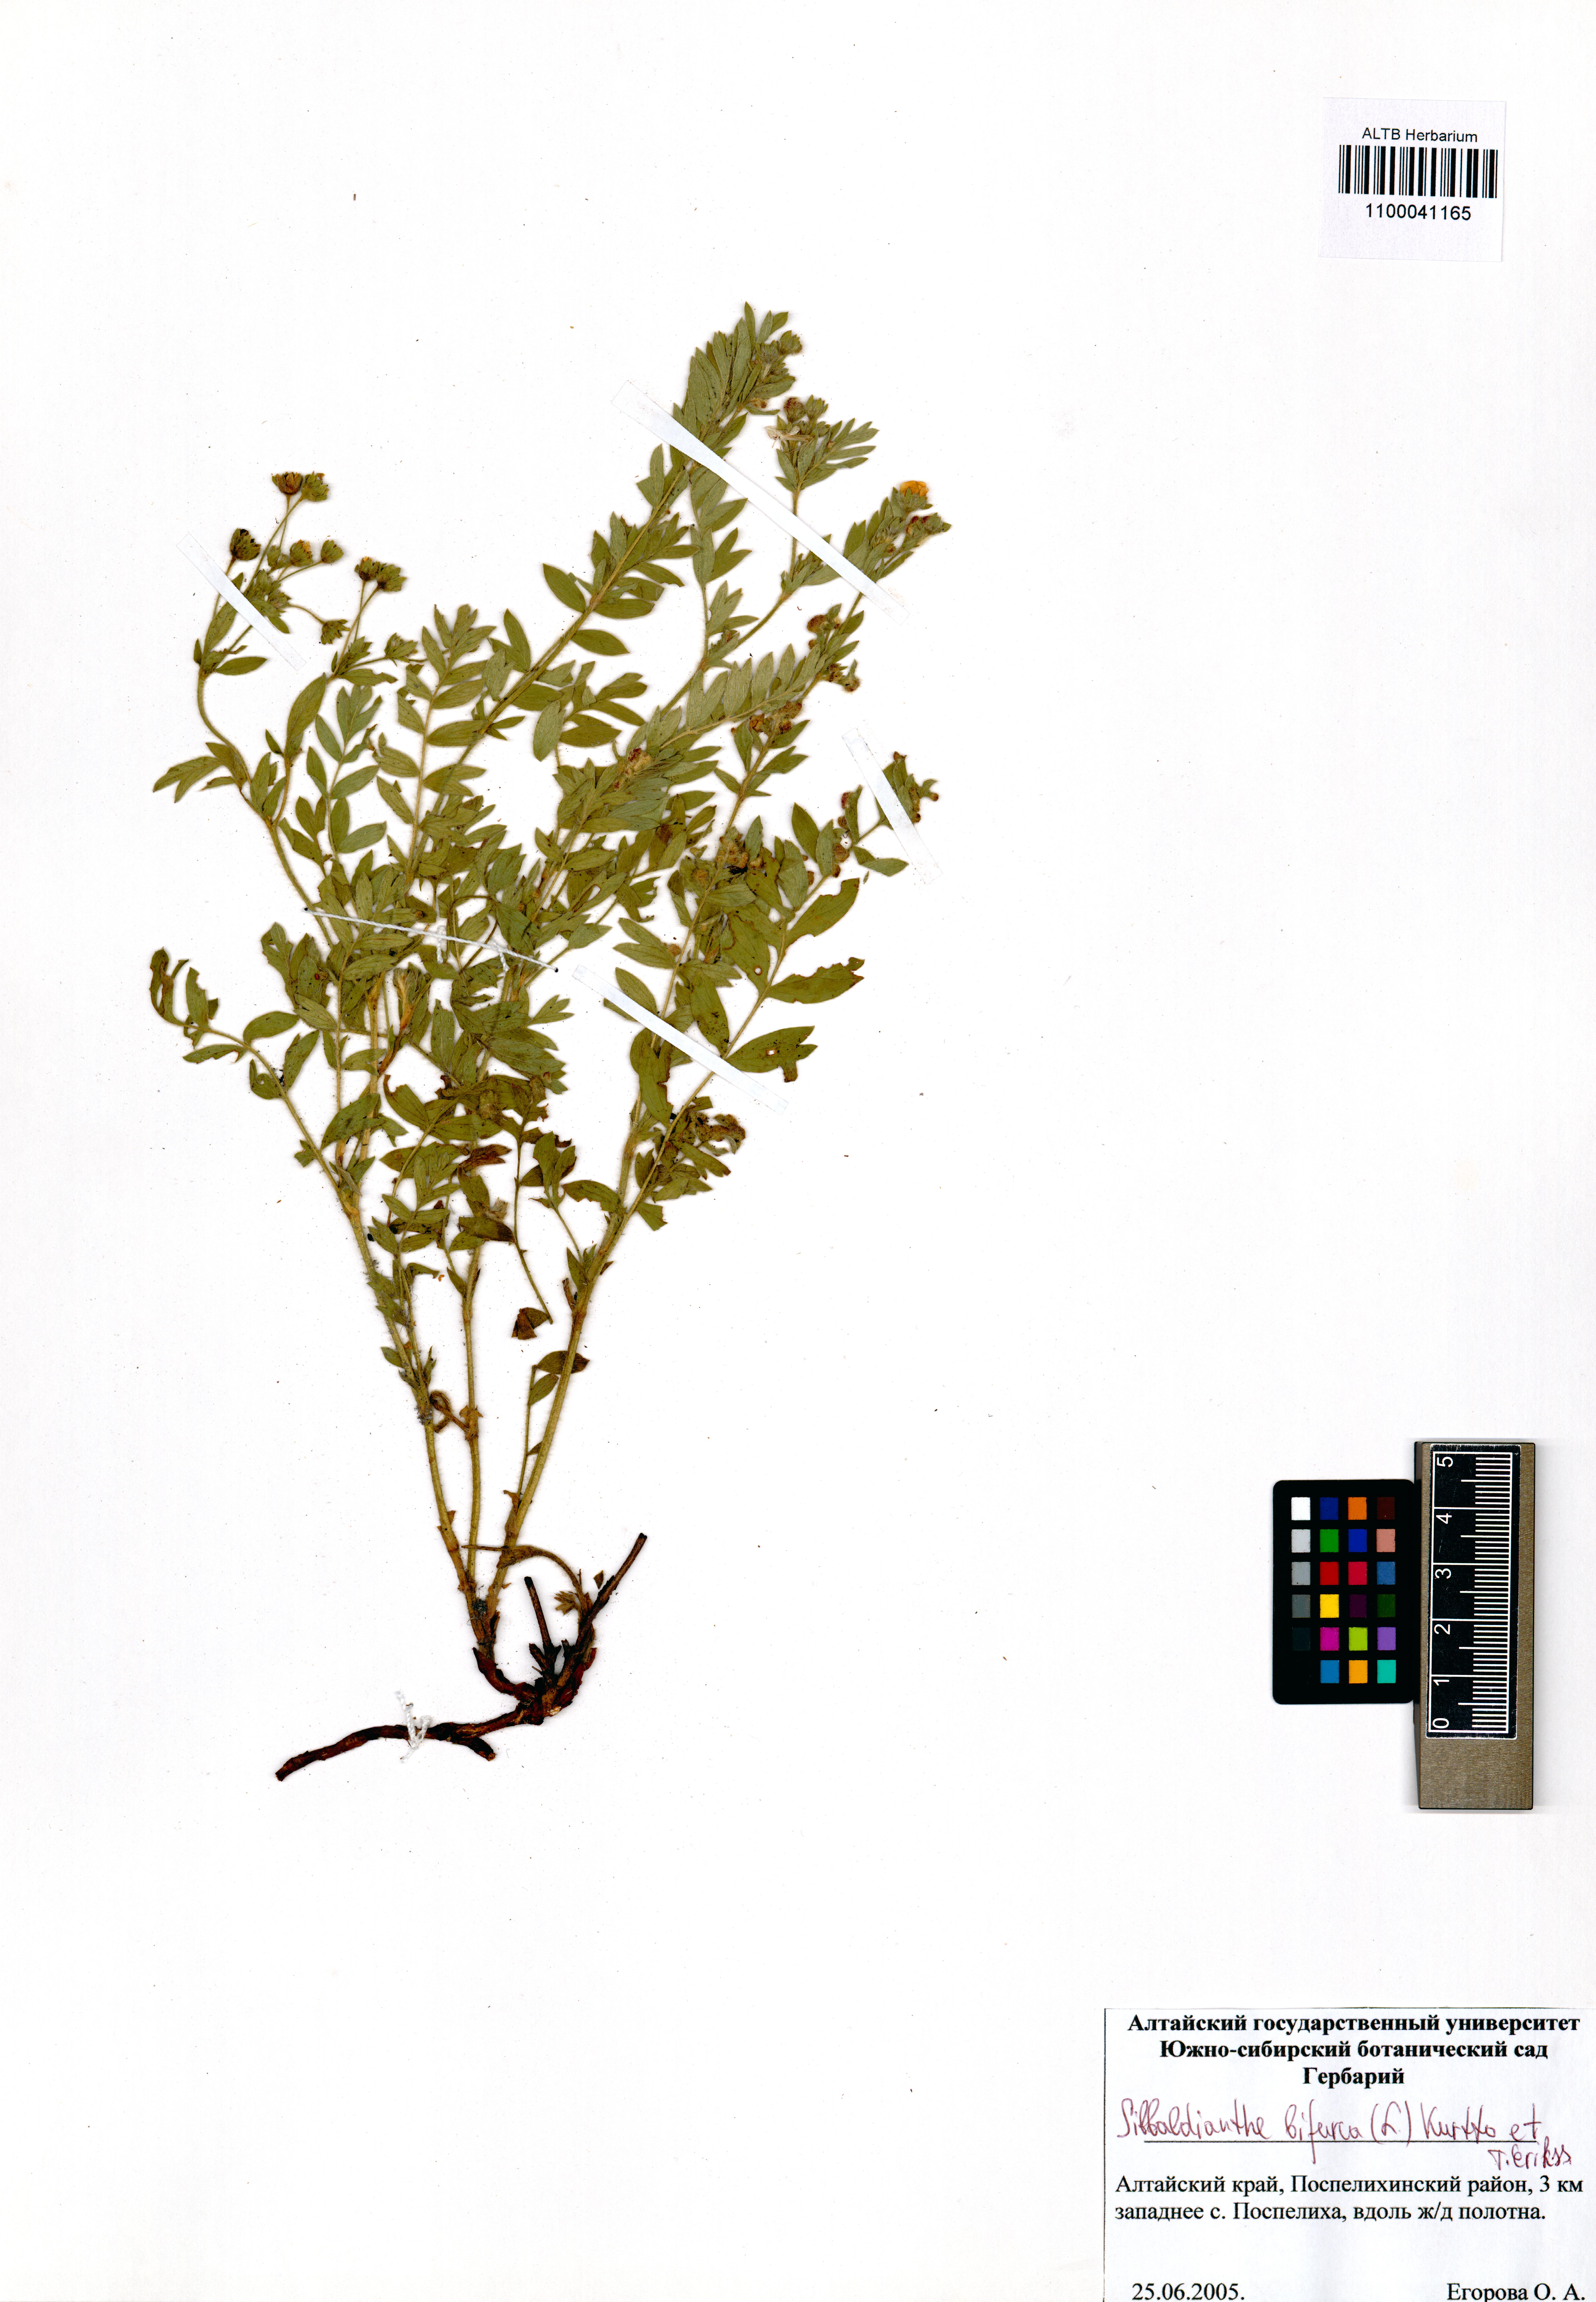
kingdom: Plantae
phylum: Tracheophyta
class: Magnoliopsida
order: Rosales
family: Rosaceae
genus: Sibbaldianthe
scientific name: Sibbaldianthe bifurca
